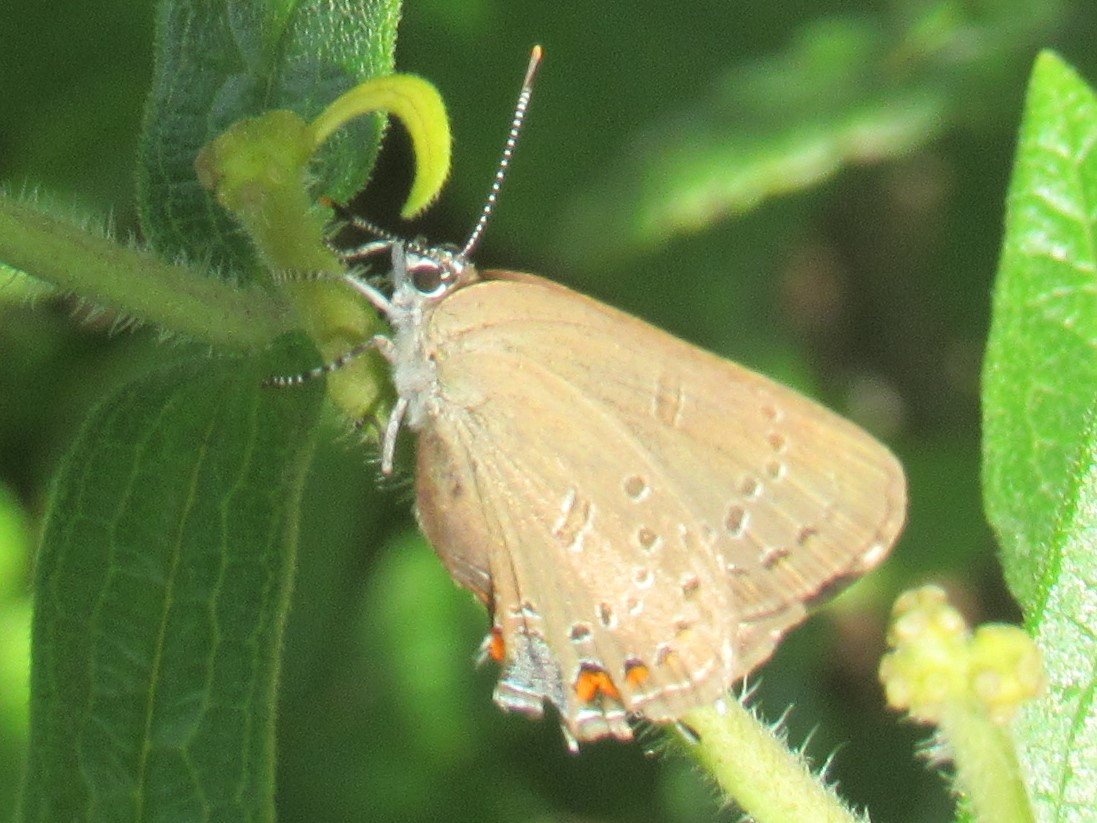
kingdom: Animalia
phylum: Arthropoda
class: Insecta
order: Lepidoptera
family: Lycaenidae
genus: Satyrium
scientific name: Satyrium edwardsii
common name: Edwards' Hairstreak
